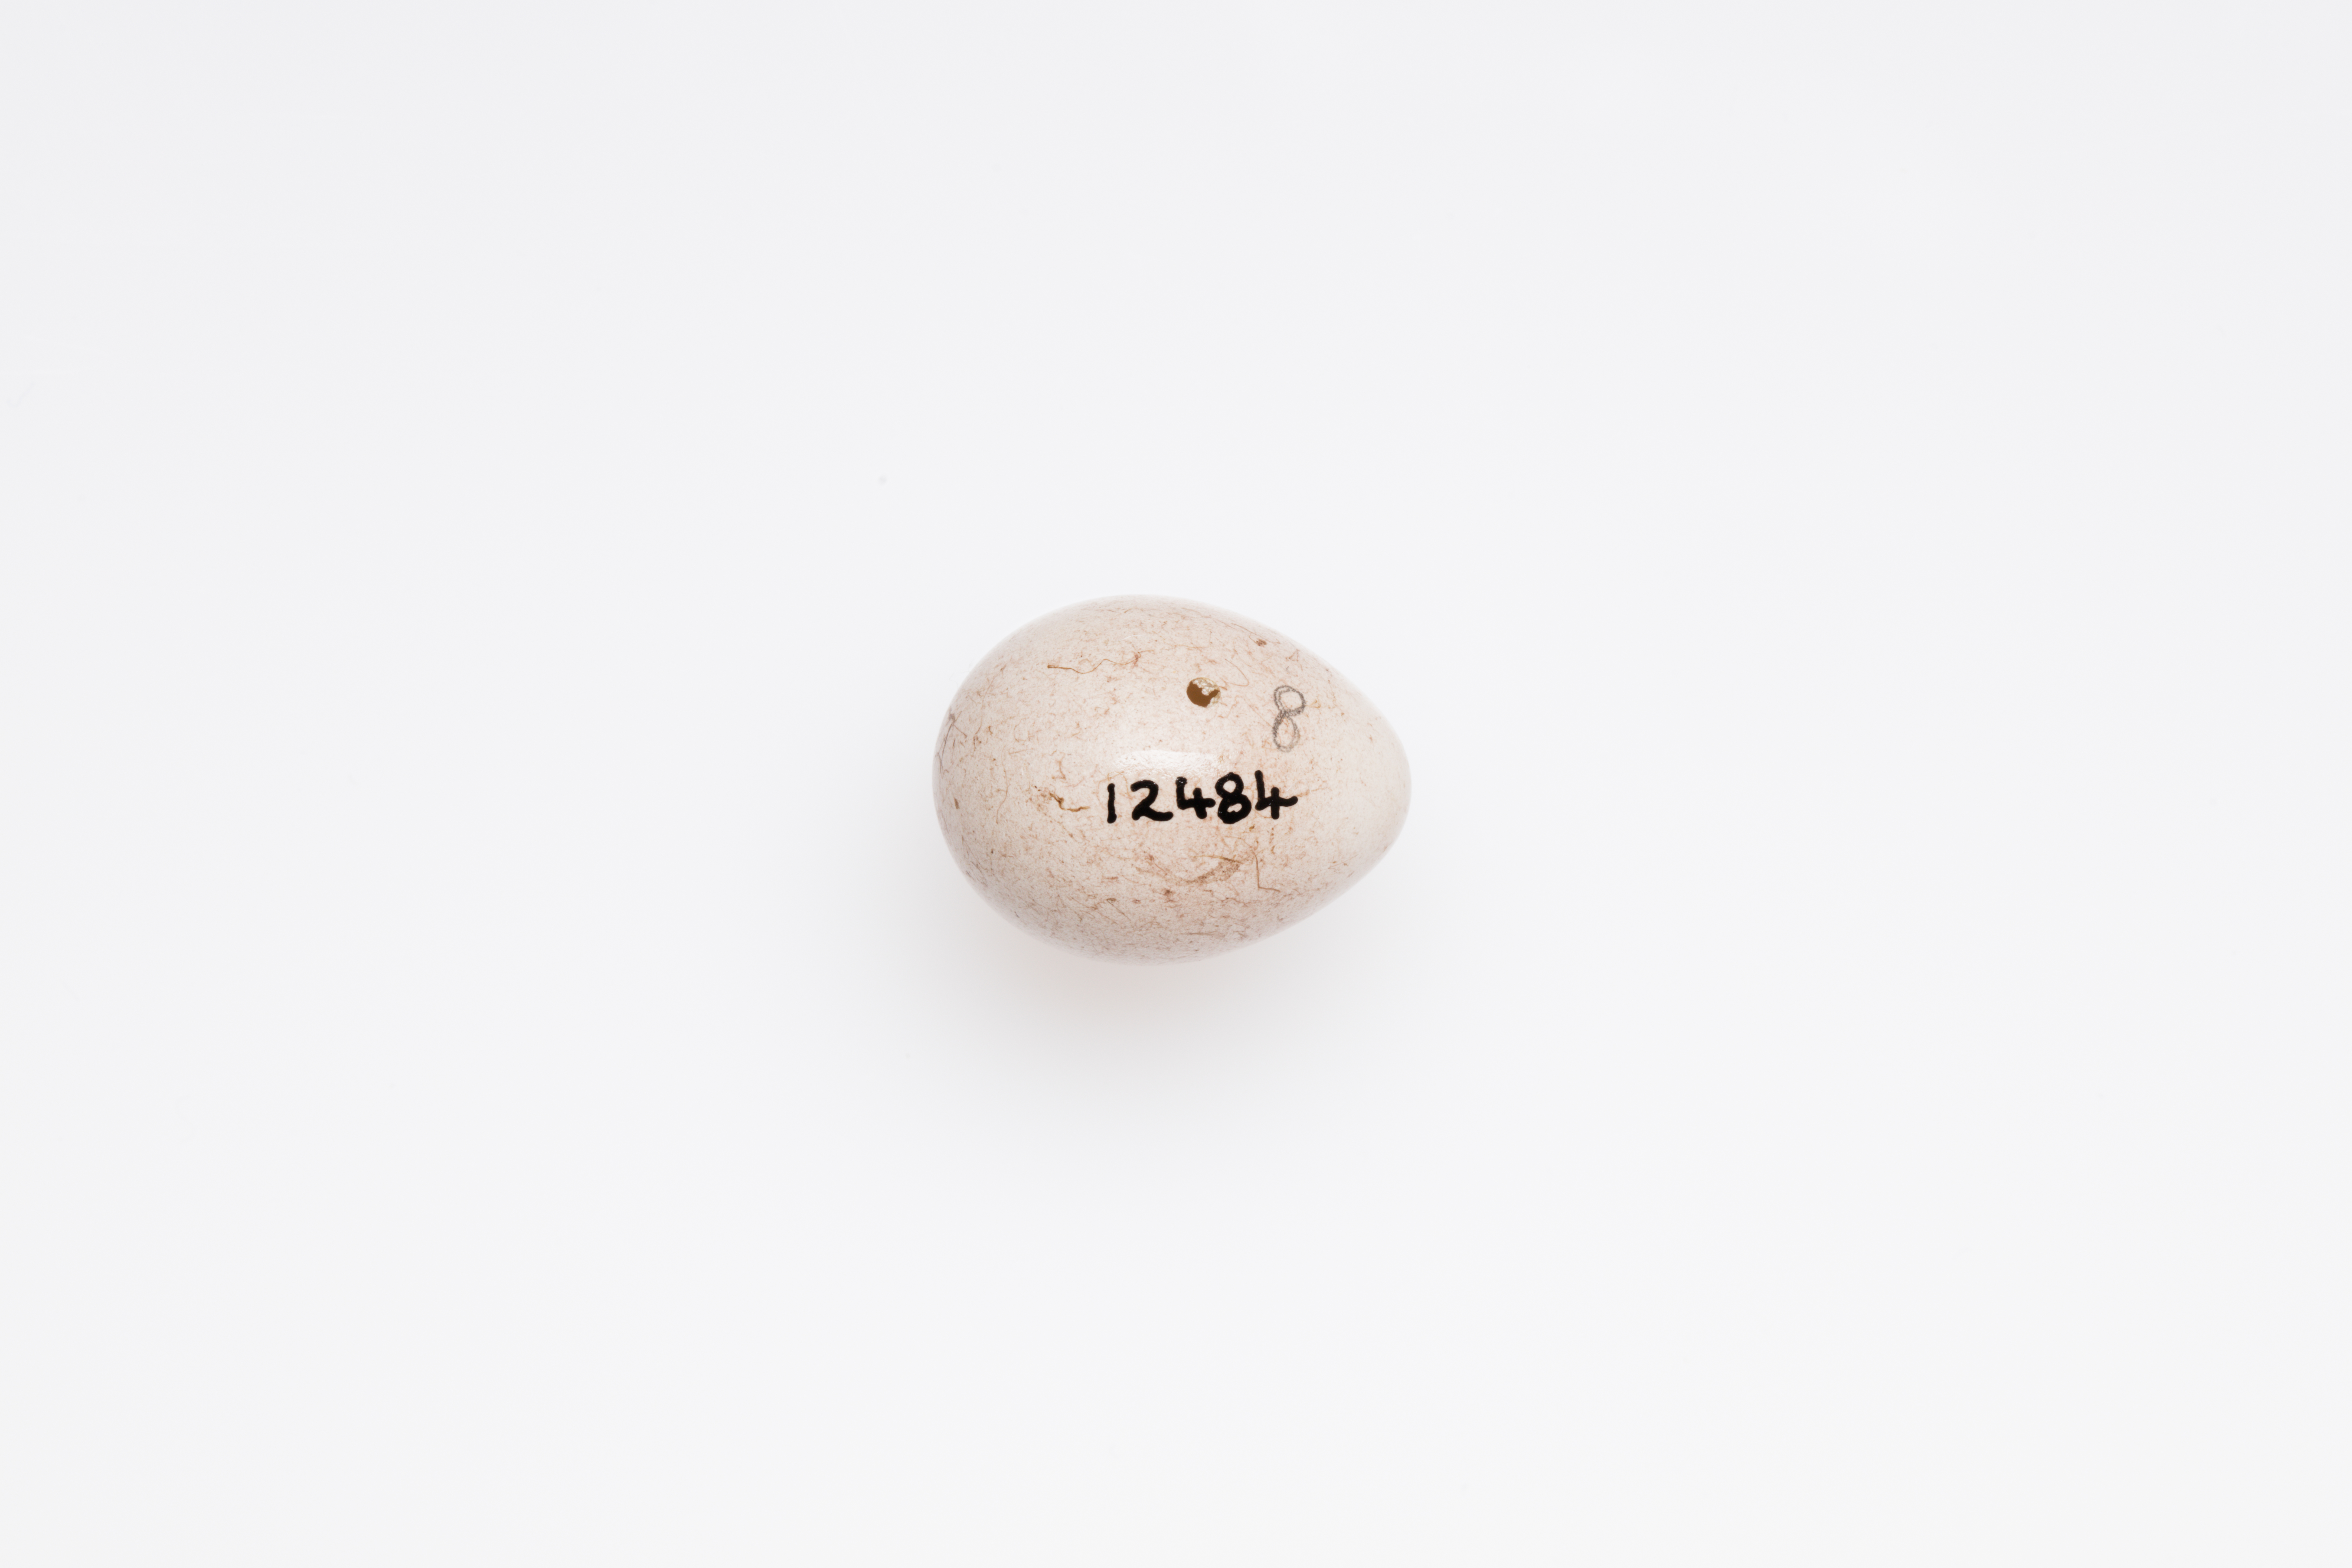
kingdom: Animalia
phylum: Chordata
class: Aves
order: Passeriformes
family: Emberizidae
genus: Emberiza
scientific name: Emberiza citrinella
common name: Yellowhammer
